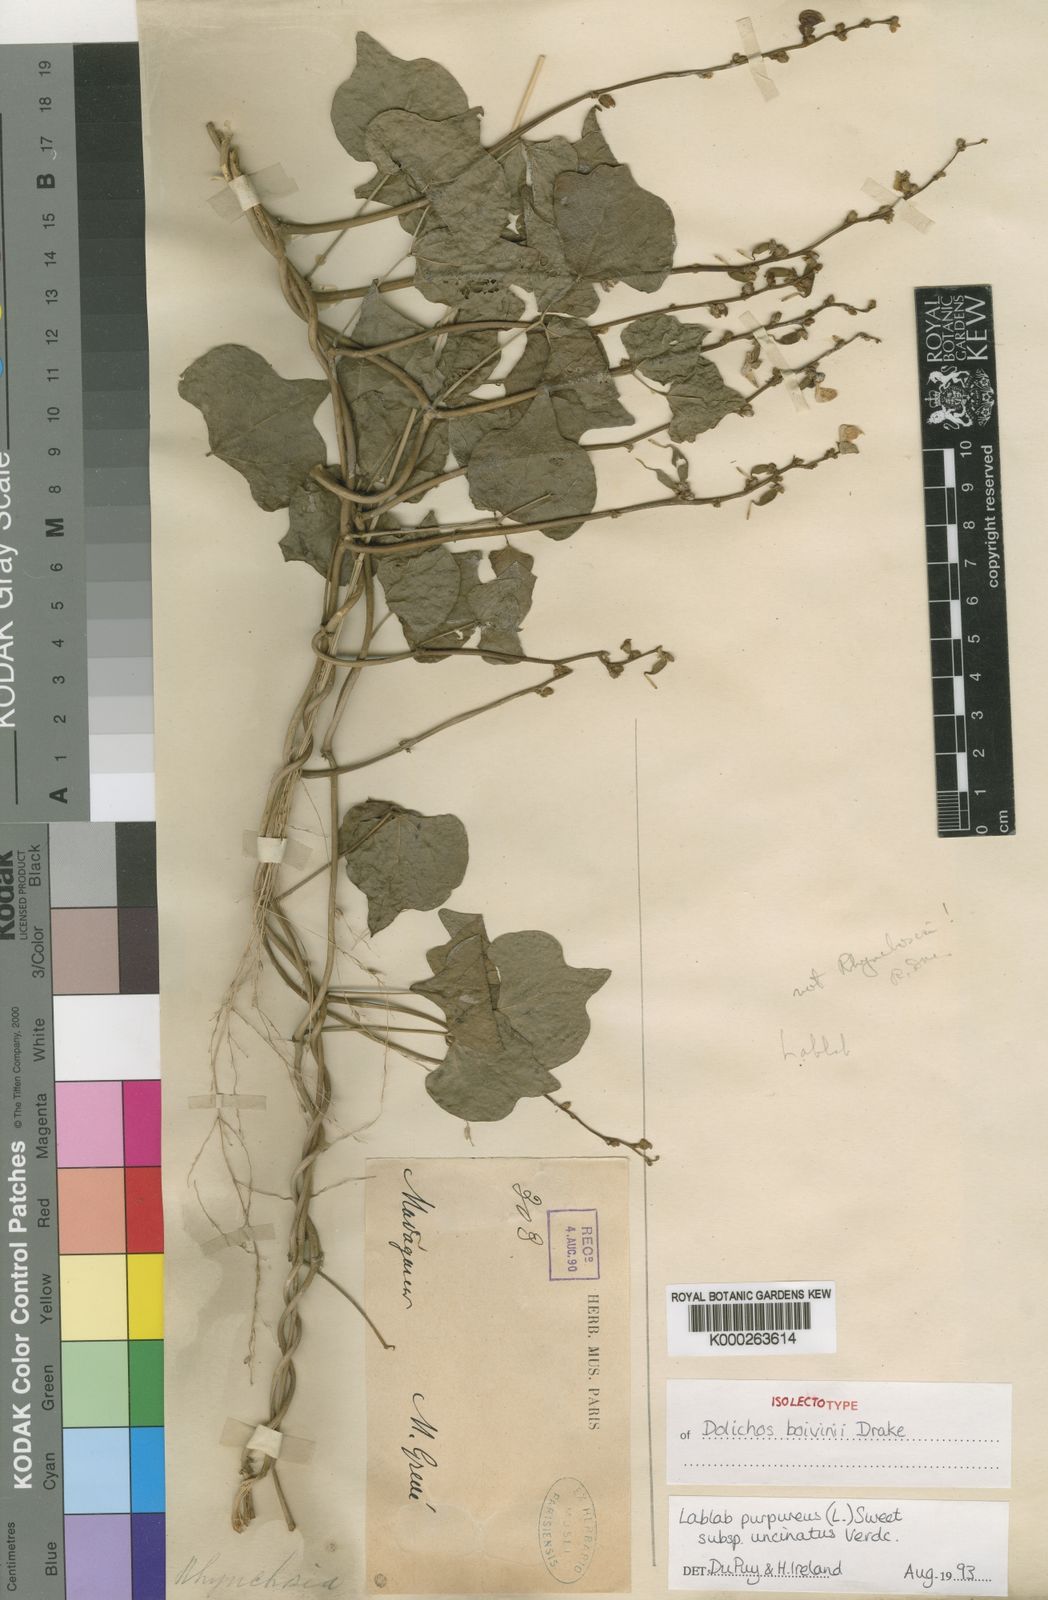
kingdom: Plantae
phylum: Tracheophyta
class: Magnoliopsida
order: Fabales
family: Fabaceae
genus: Lablab
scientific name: Lablab purpureus
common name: Lablab-bean
